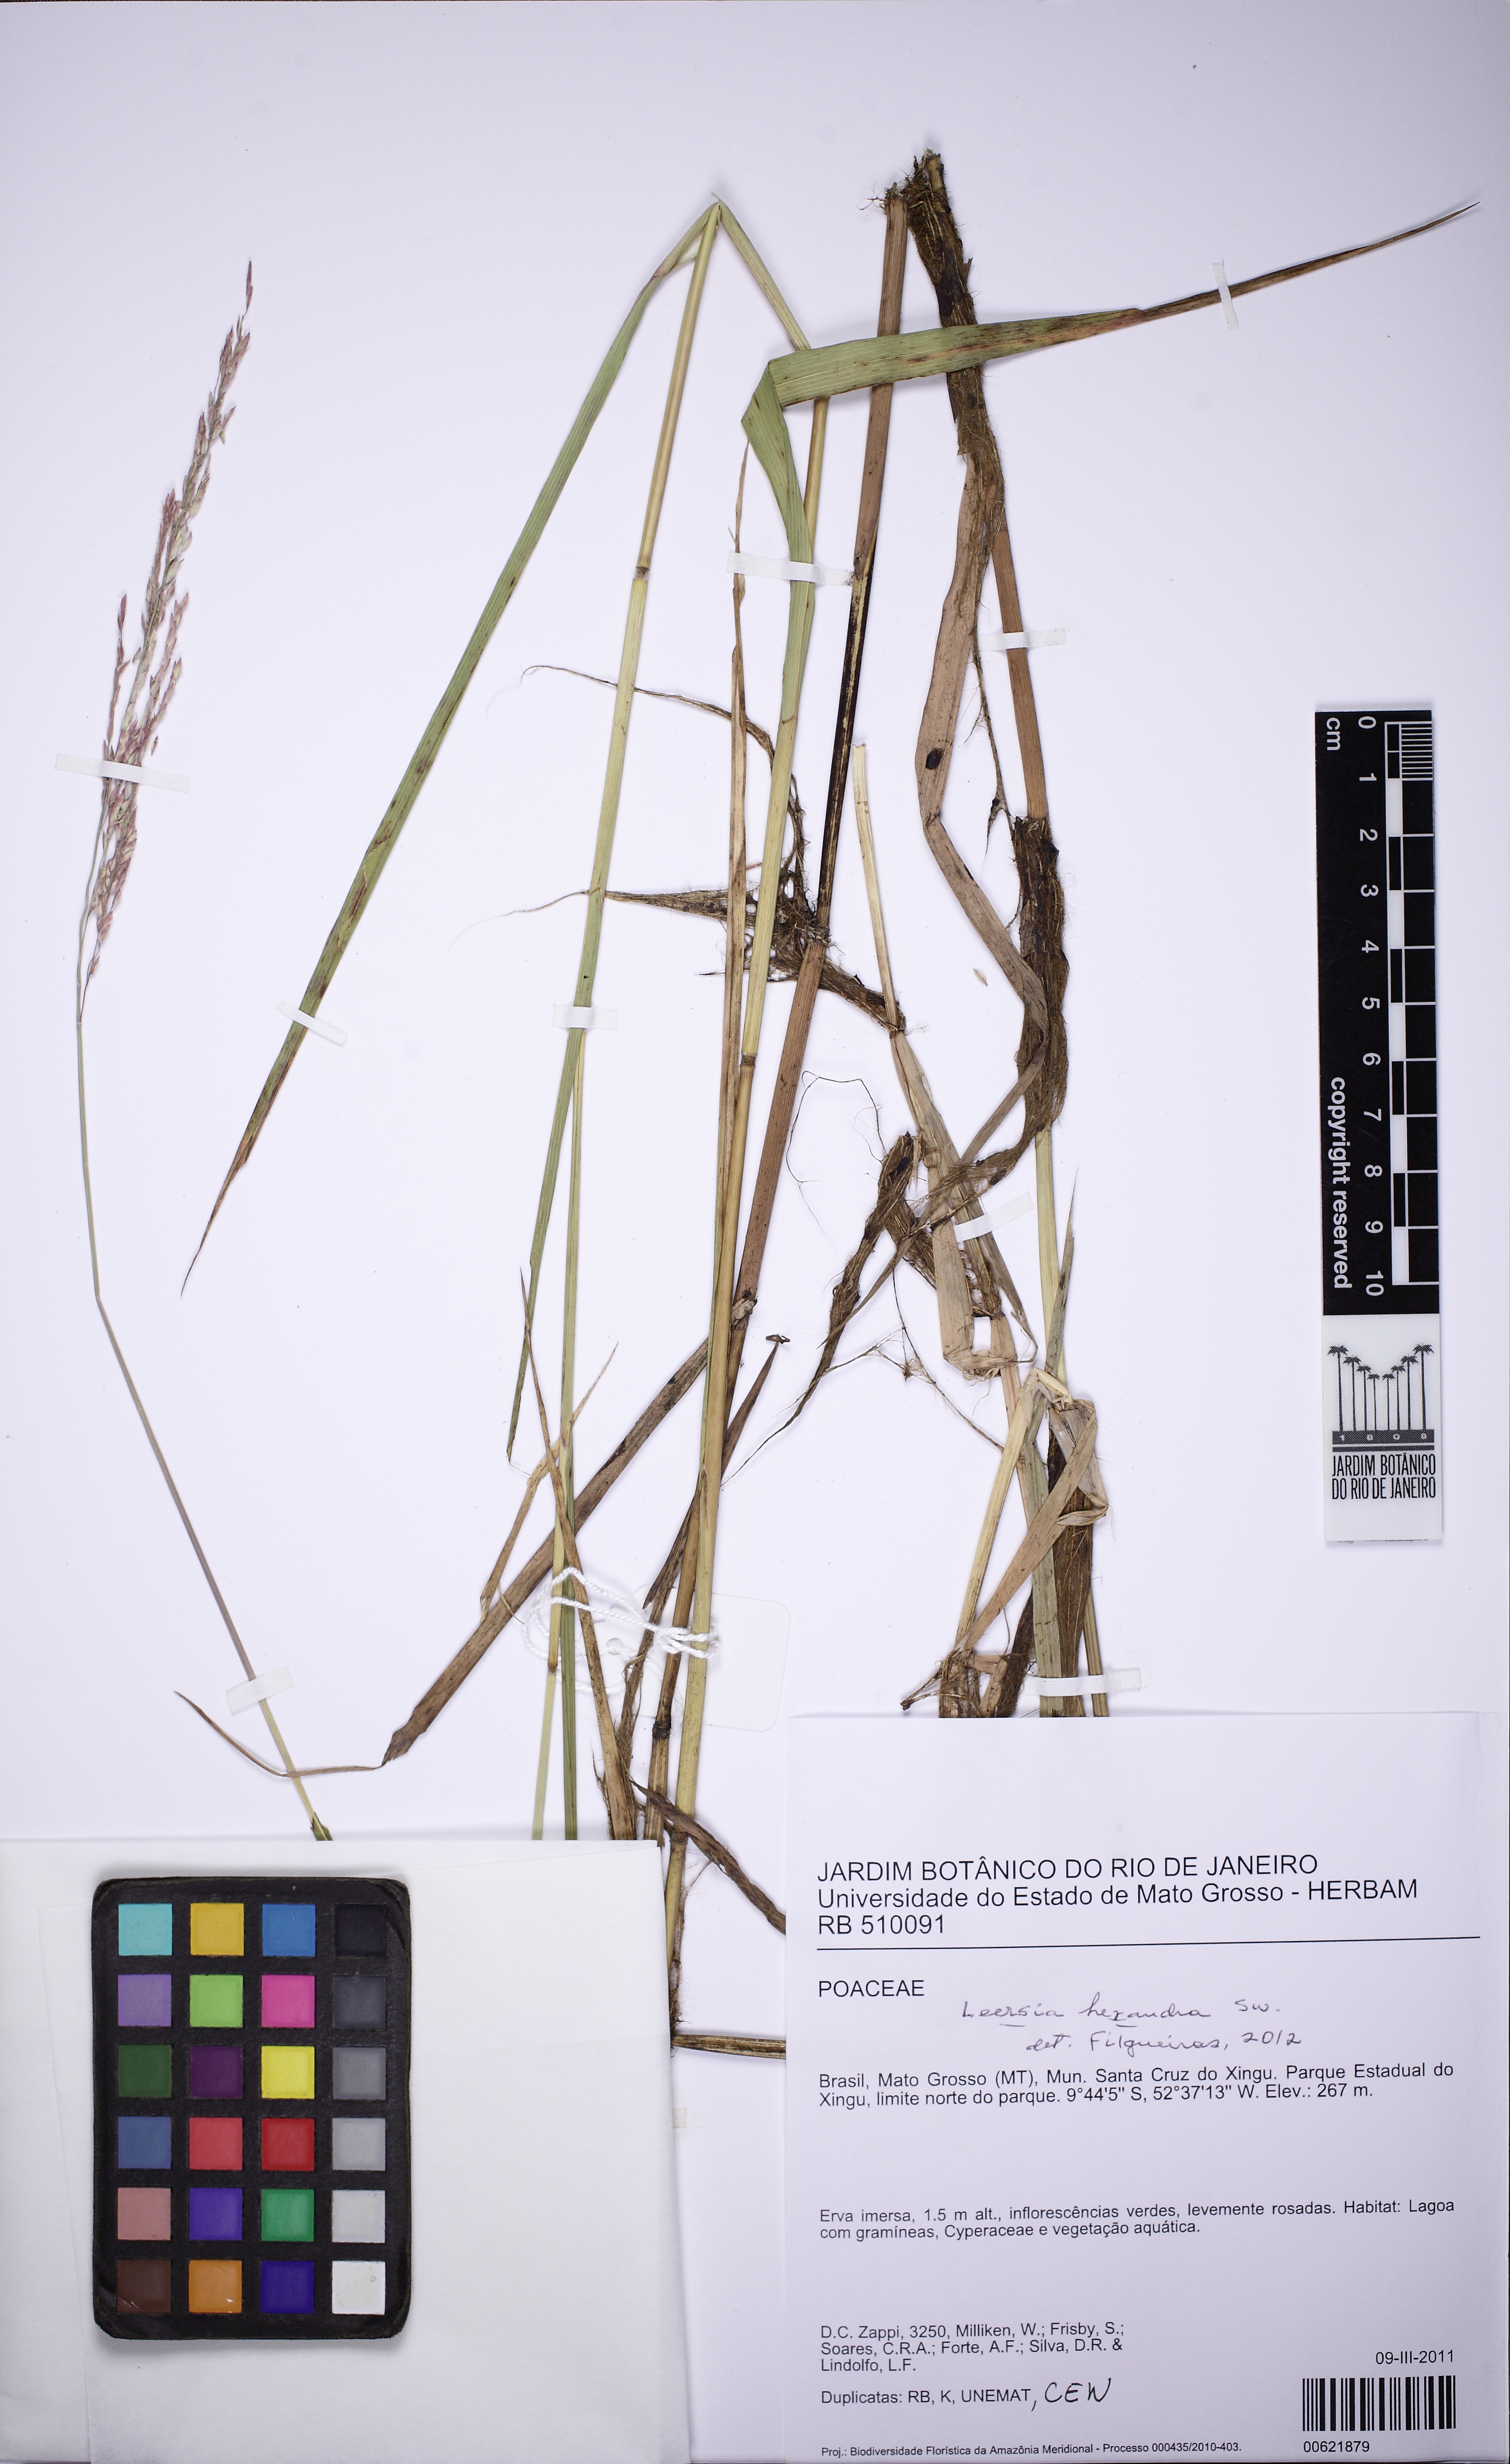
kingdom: Plantae
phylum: Tracheophyta
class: Liliopsida
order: Poales
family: Poaceae
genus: Leersia
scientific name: Leersia hexandra
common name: Southern cut grass
